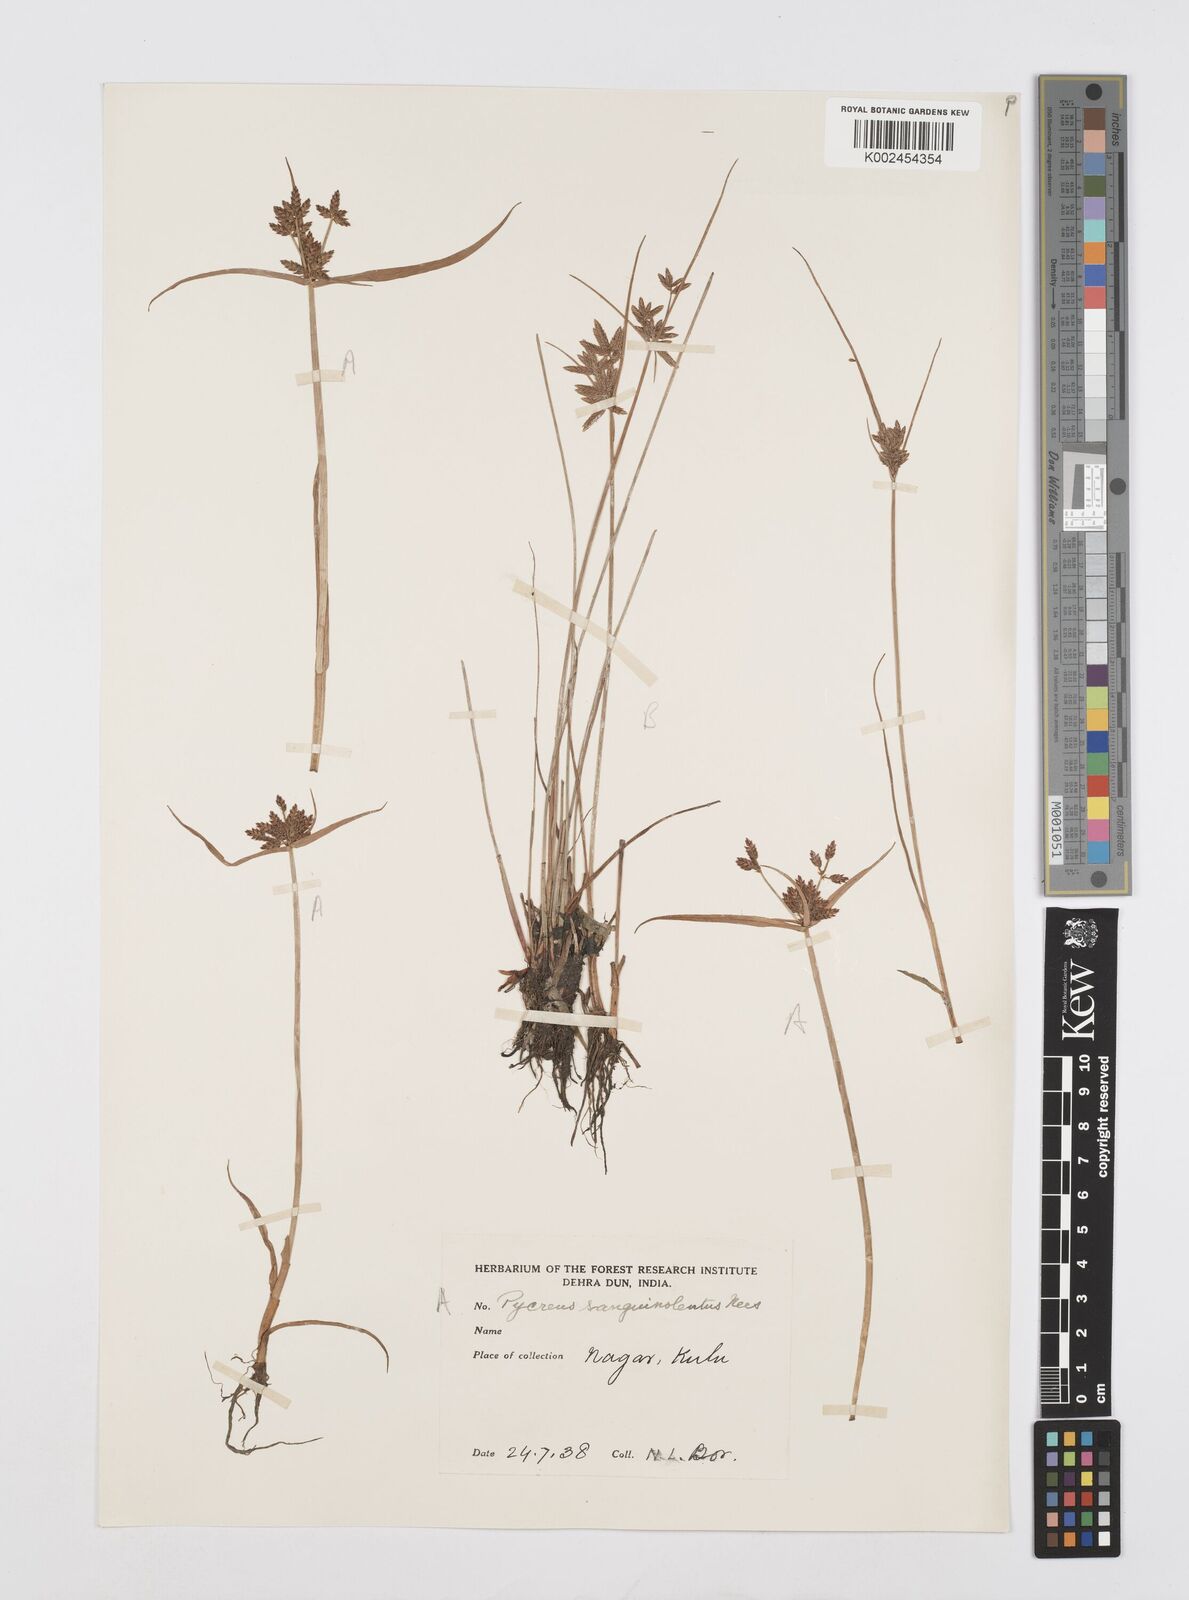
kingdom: Plantae
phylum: Tracheophyta
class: Liliopsida
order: Poales
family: Cyperaceae
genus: Cyperus
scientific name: Cyperus sanguinolentus
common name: Purpleglume flatsedge
